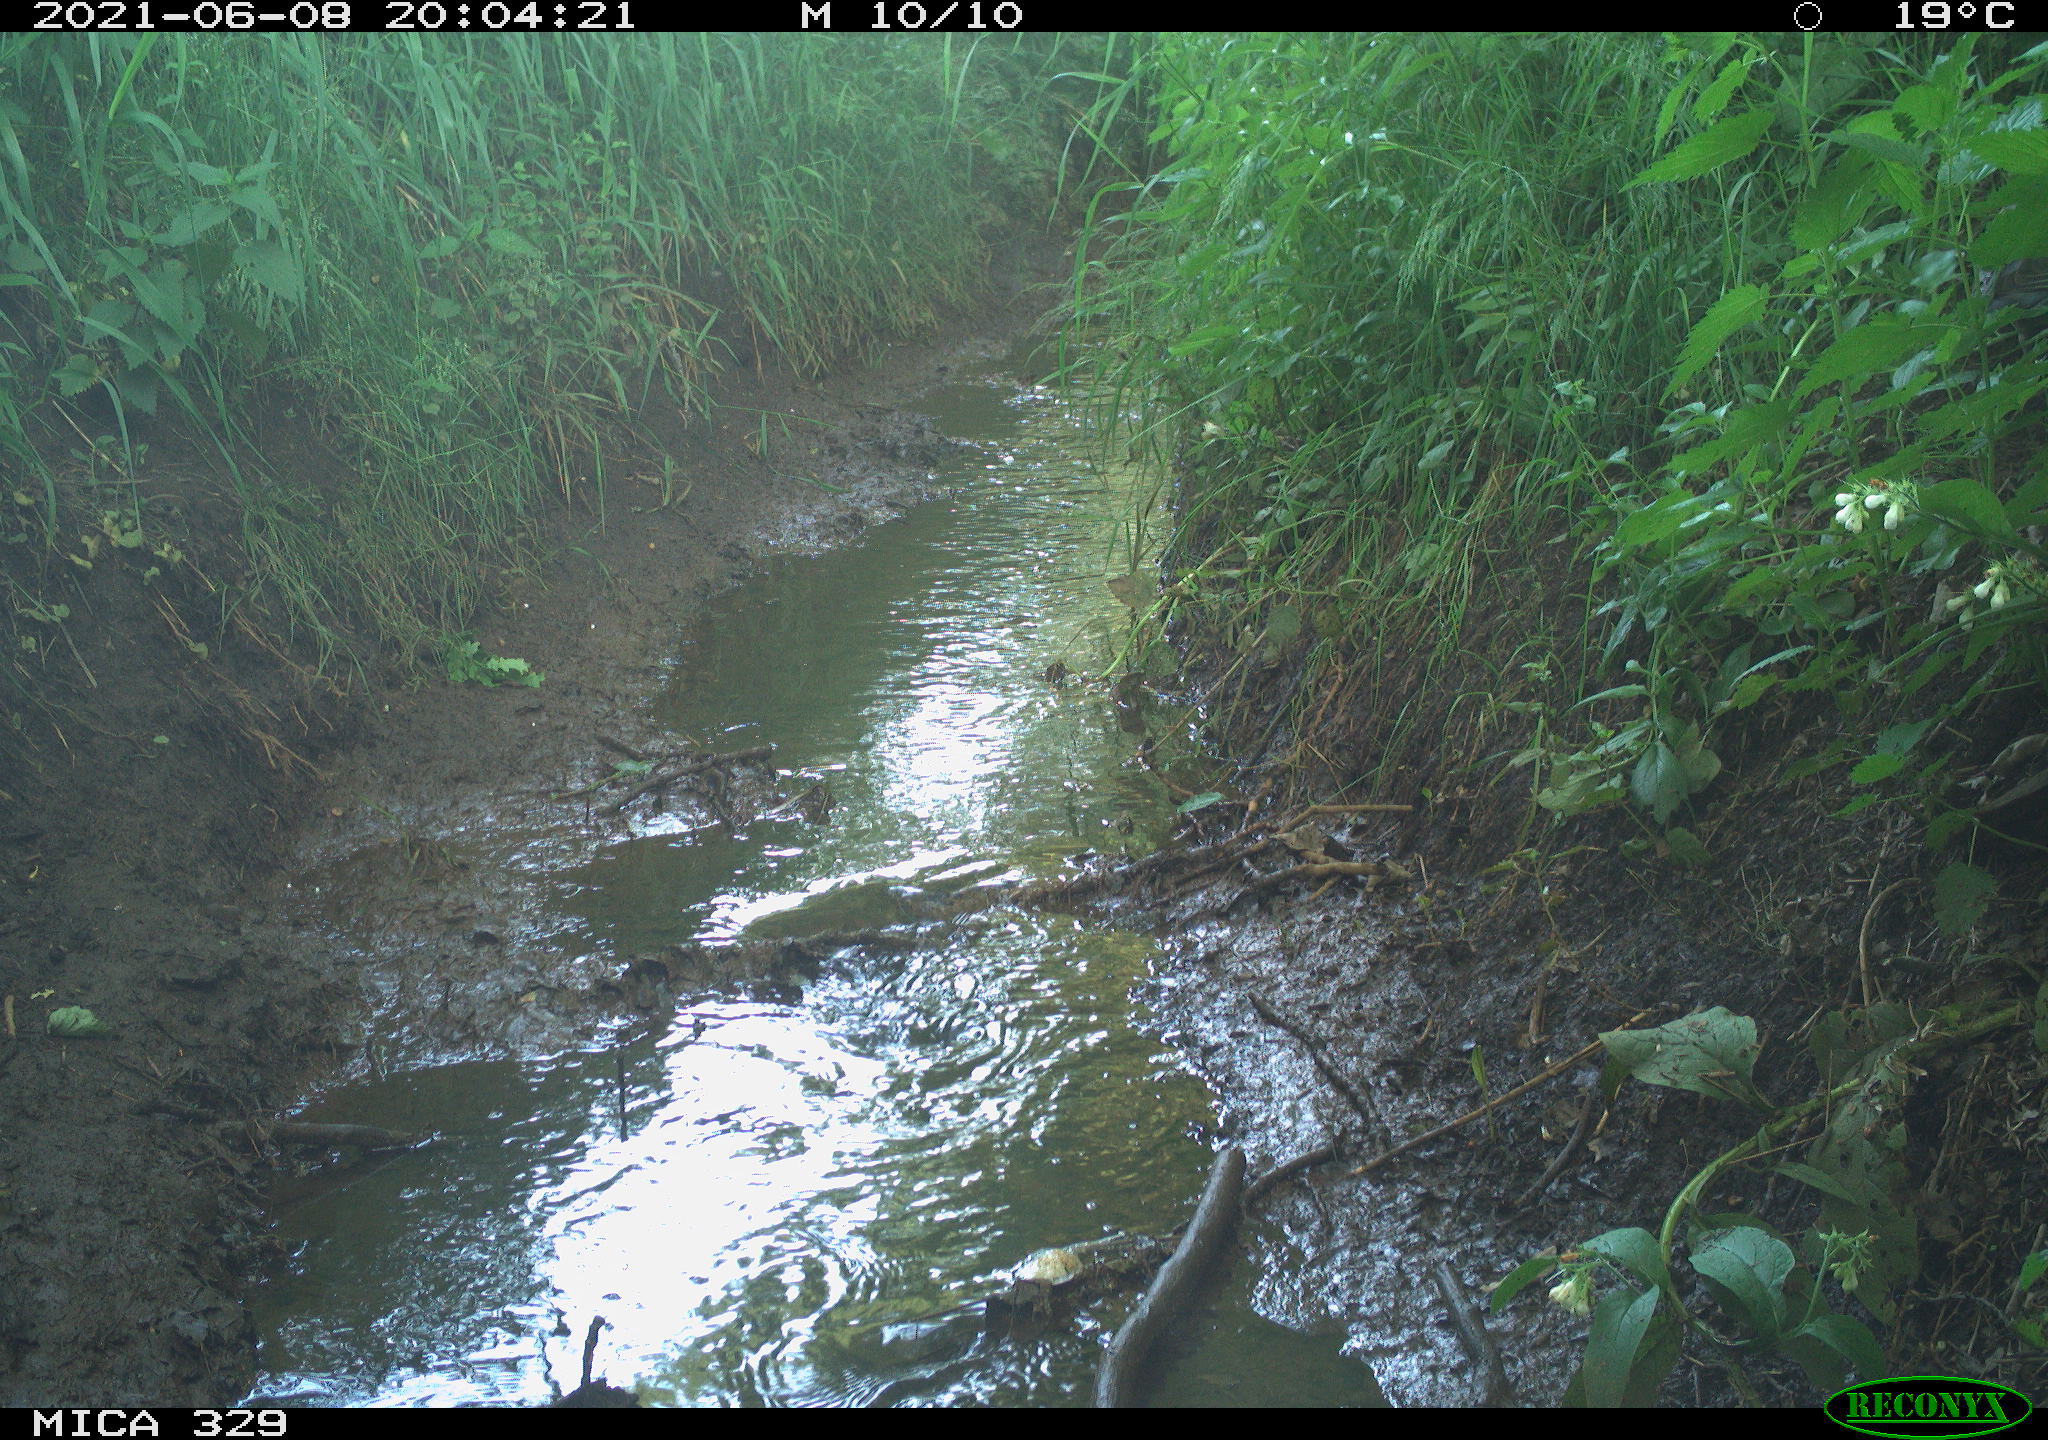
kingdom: Animalia
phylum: Chordata
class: Aves
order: Columbiformes
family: Columbidae
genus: Columba
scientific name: Columba palumbus
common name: Common wood pigeon
